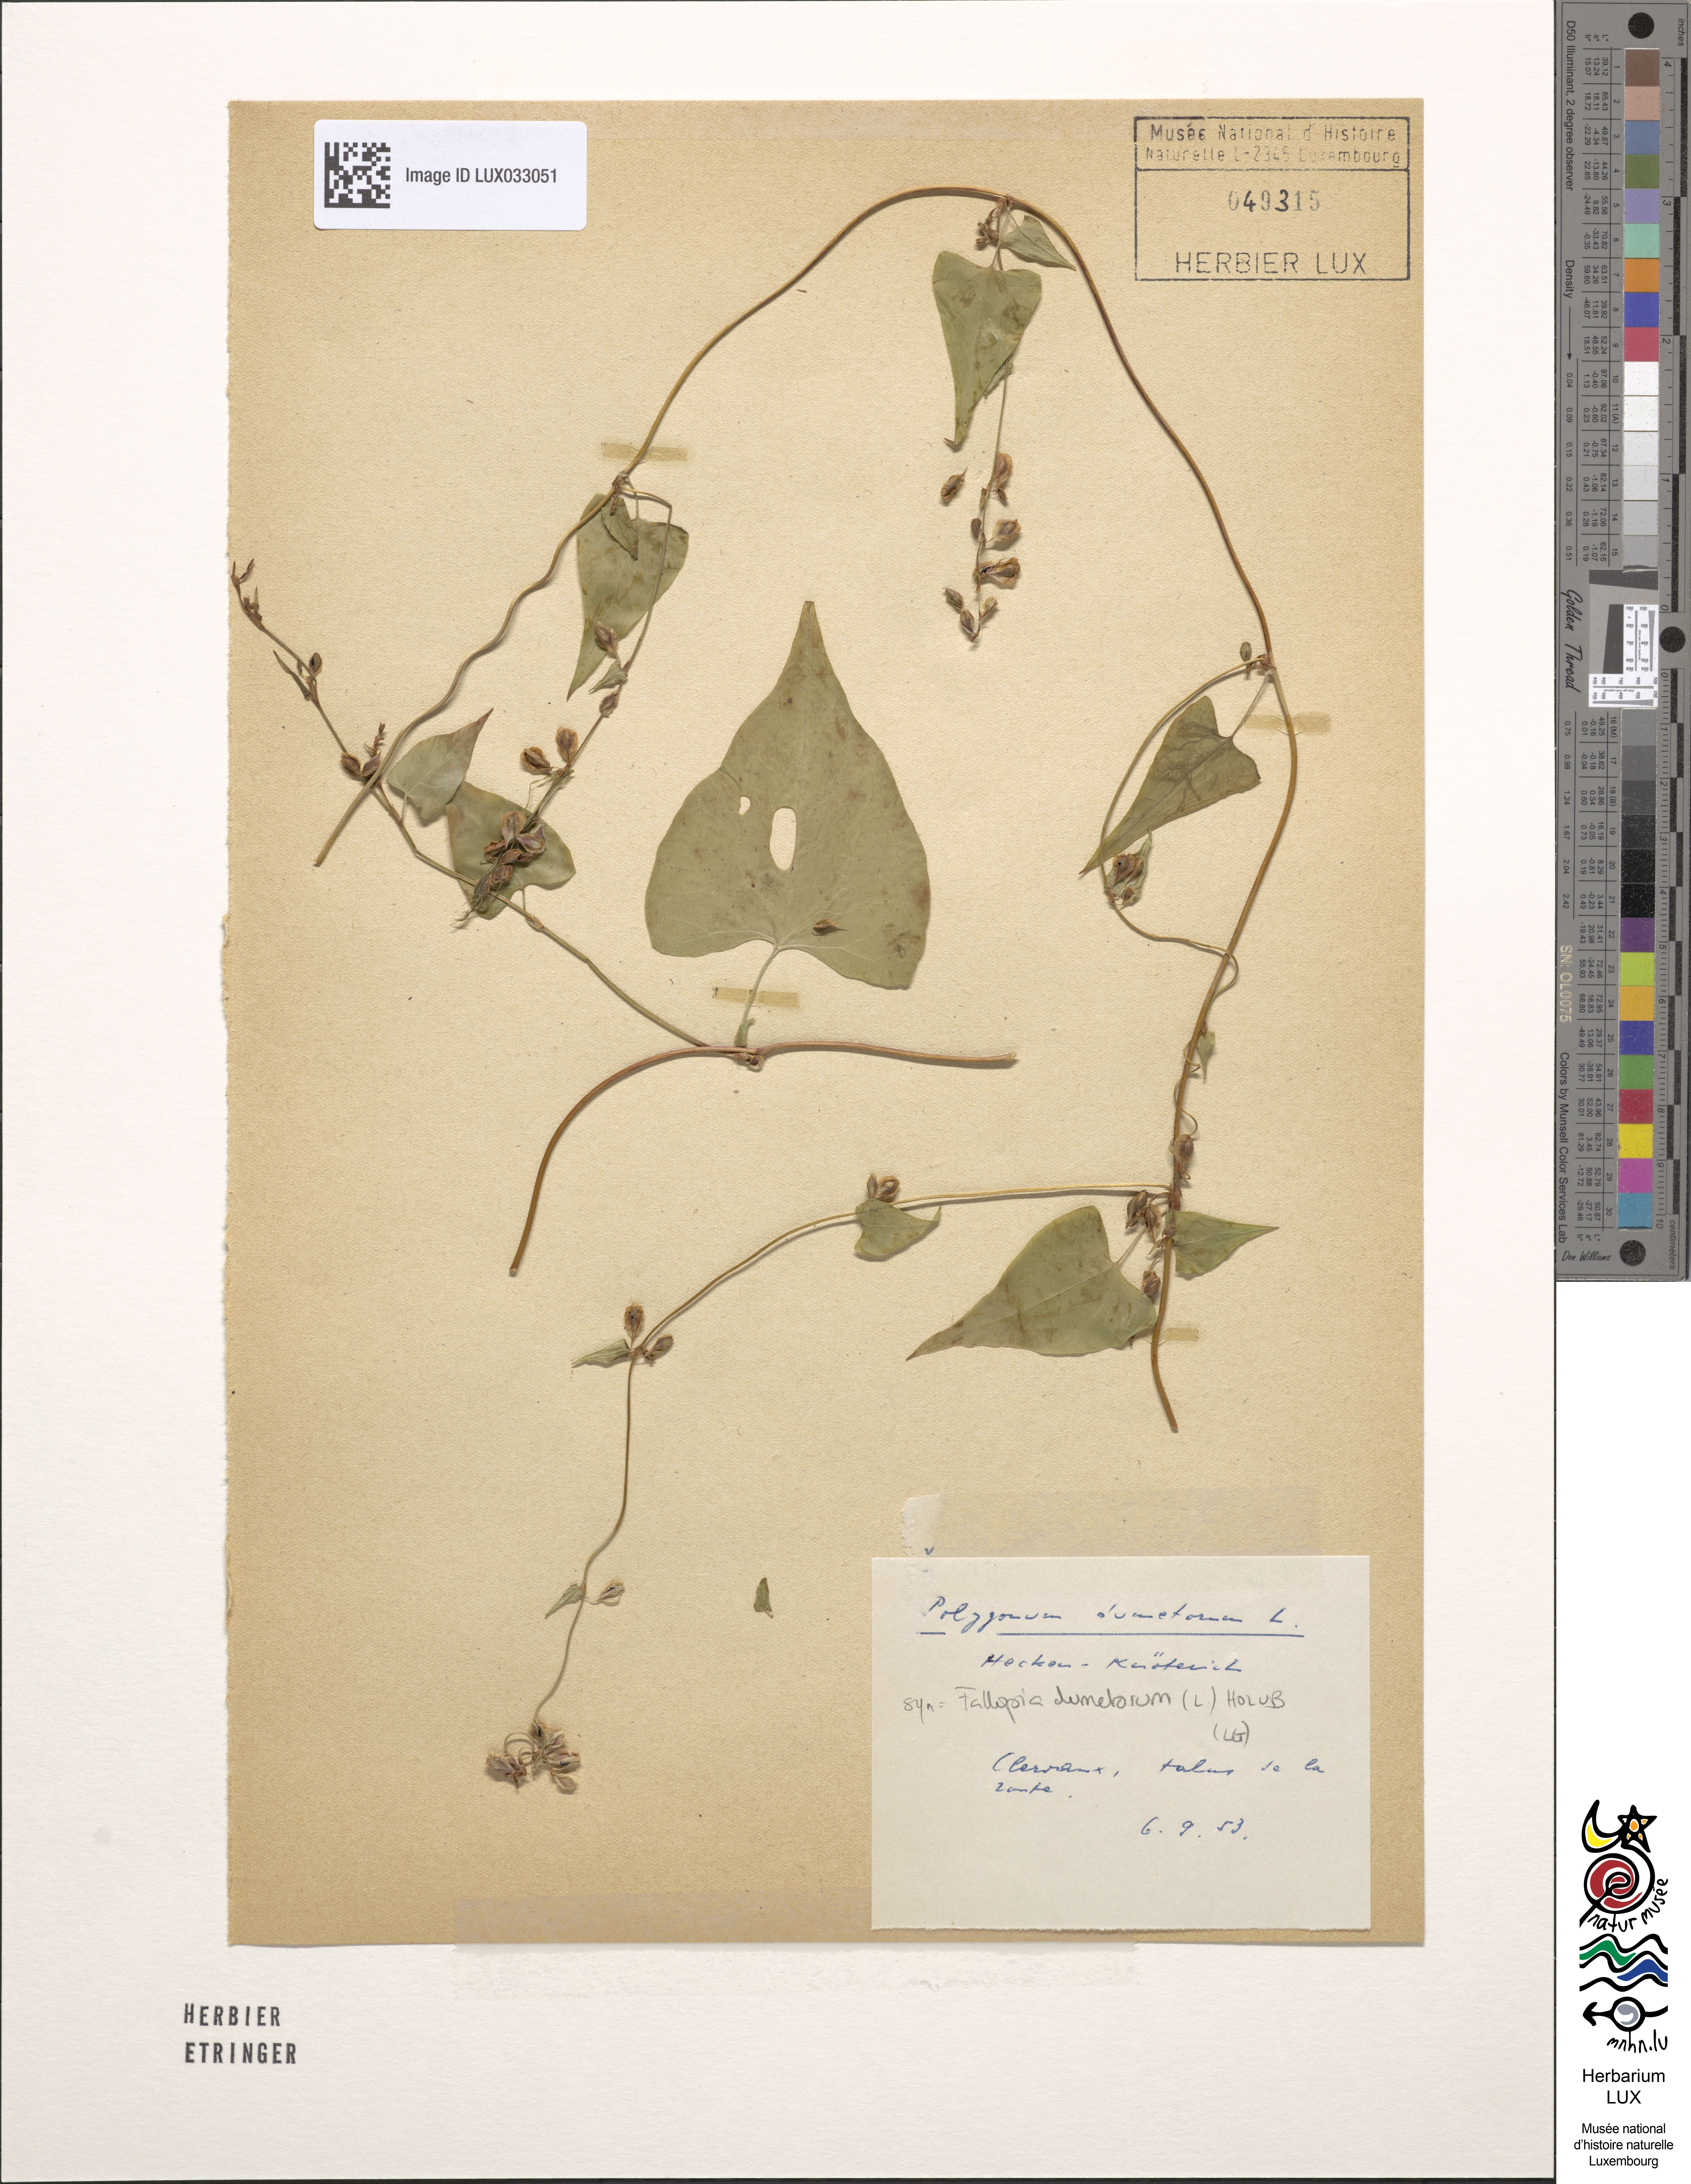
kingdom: Plantae
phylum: Tracheophyta
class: Magnoliopsida
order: Caryophyllales
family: Polygonaceae
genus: Fallopia
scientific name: Fallopia dumetorum
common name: Copse-bindweed
